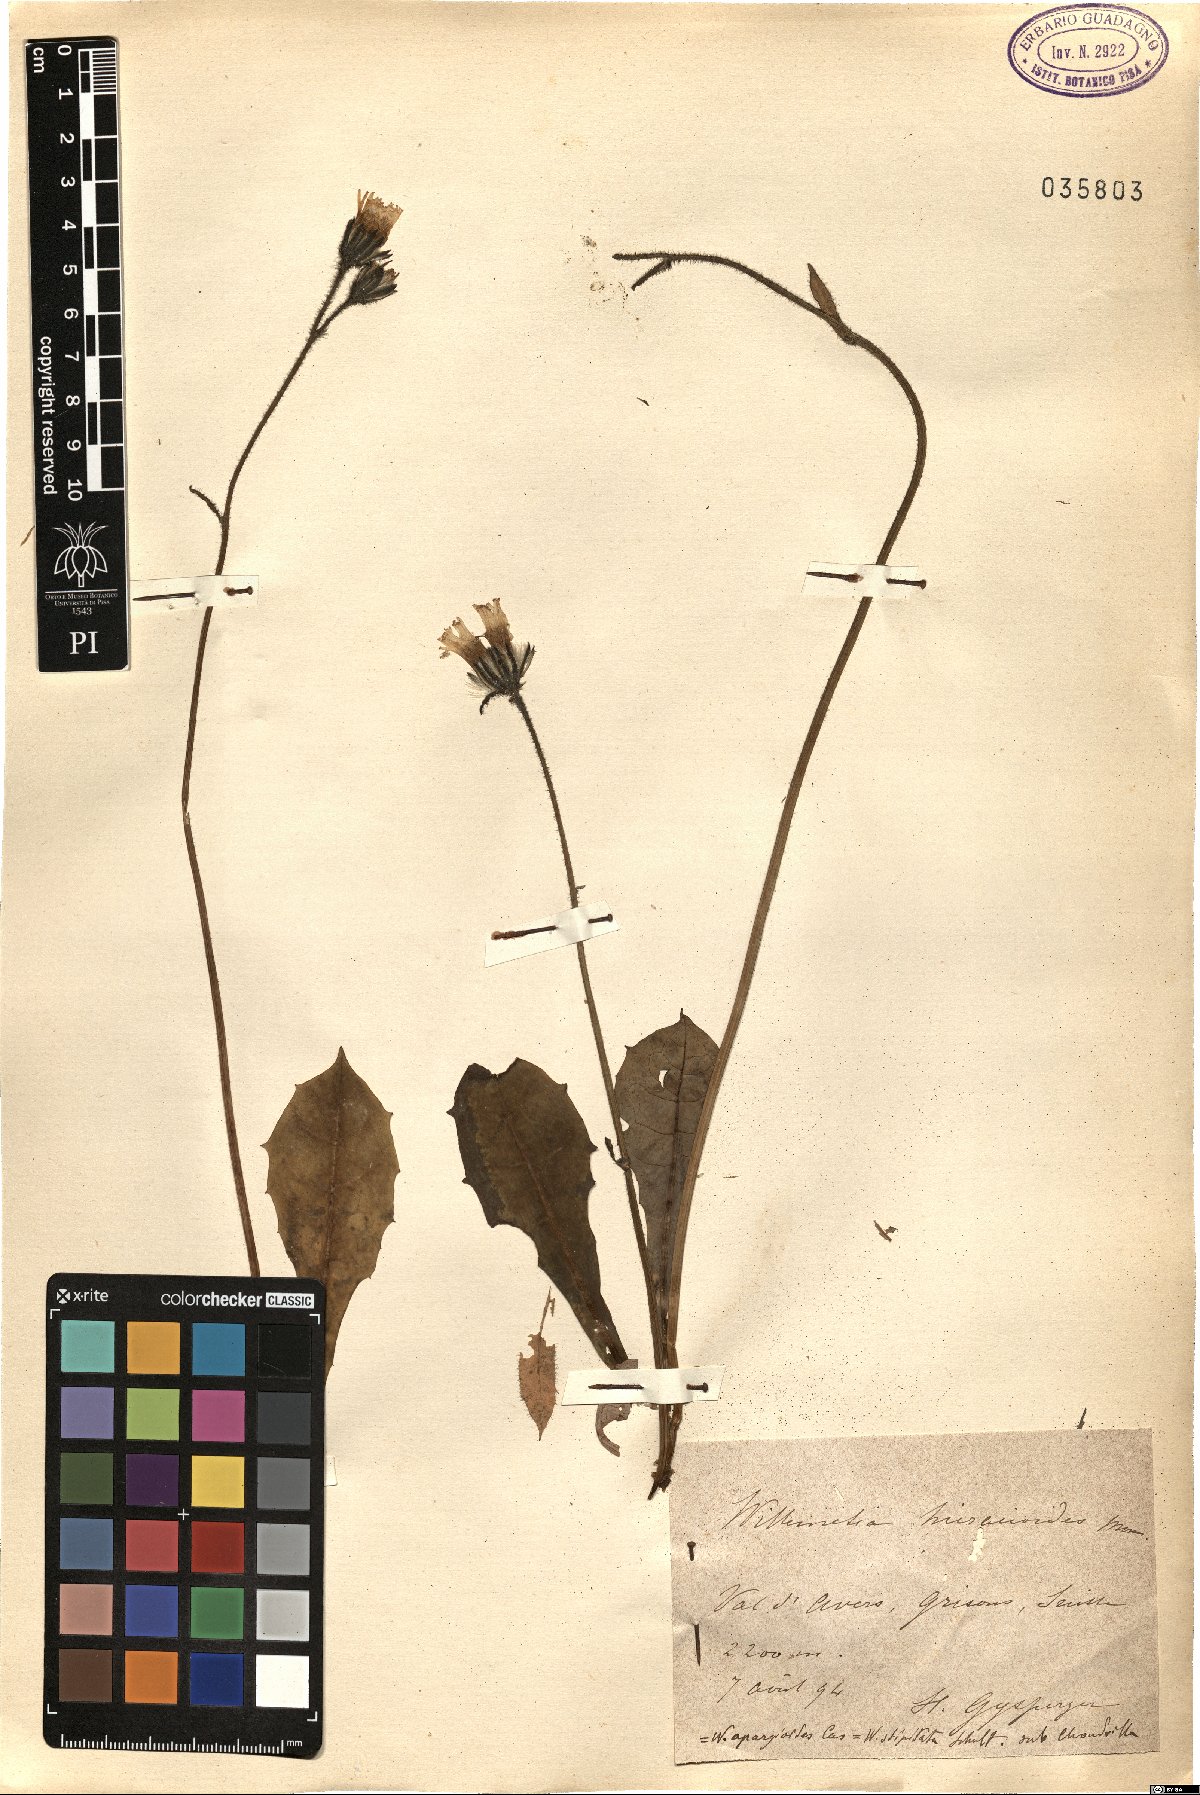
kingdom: Plantae
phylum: Tracheophyta
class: Magnoliopsida
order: Asterales
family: Asteraceae
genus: Willemetia
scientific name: Willemetia stipitata
